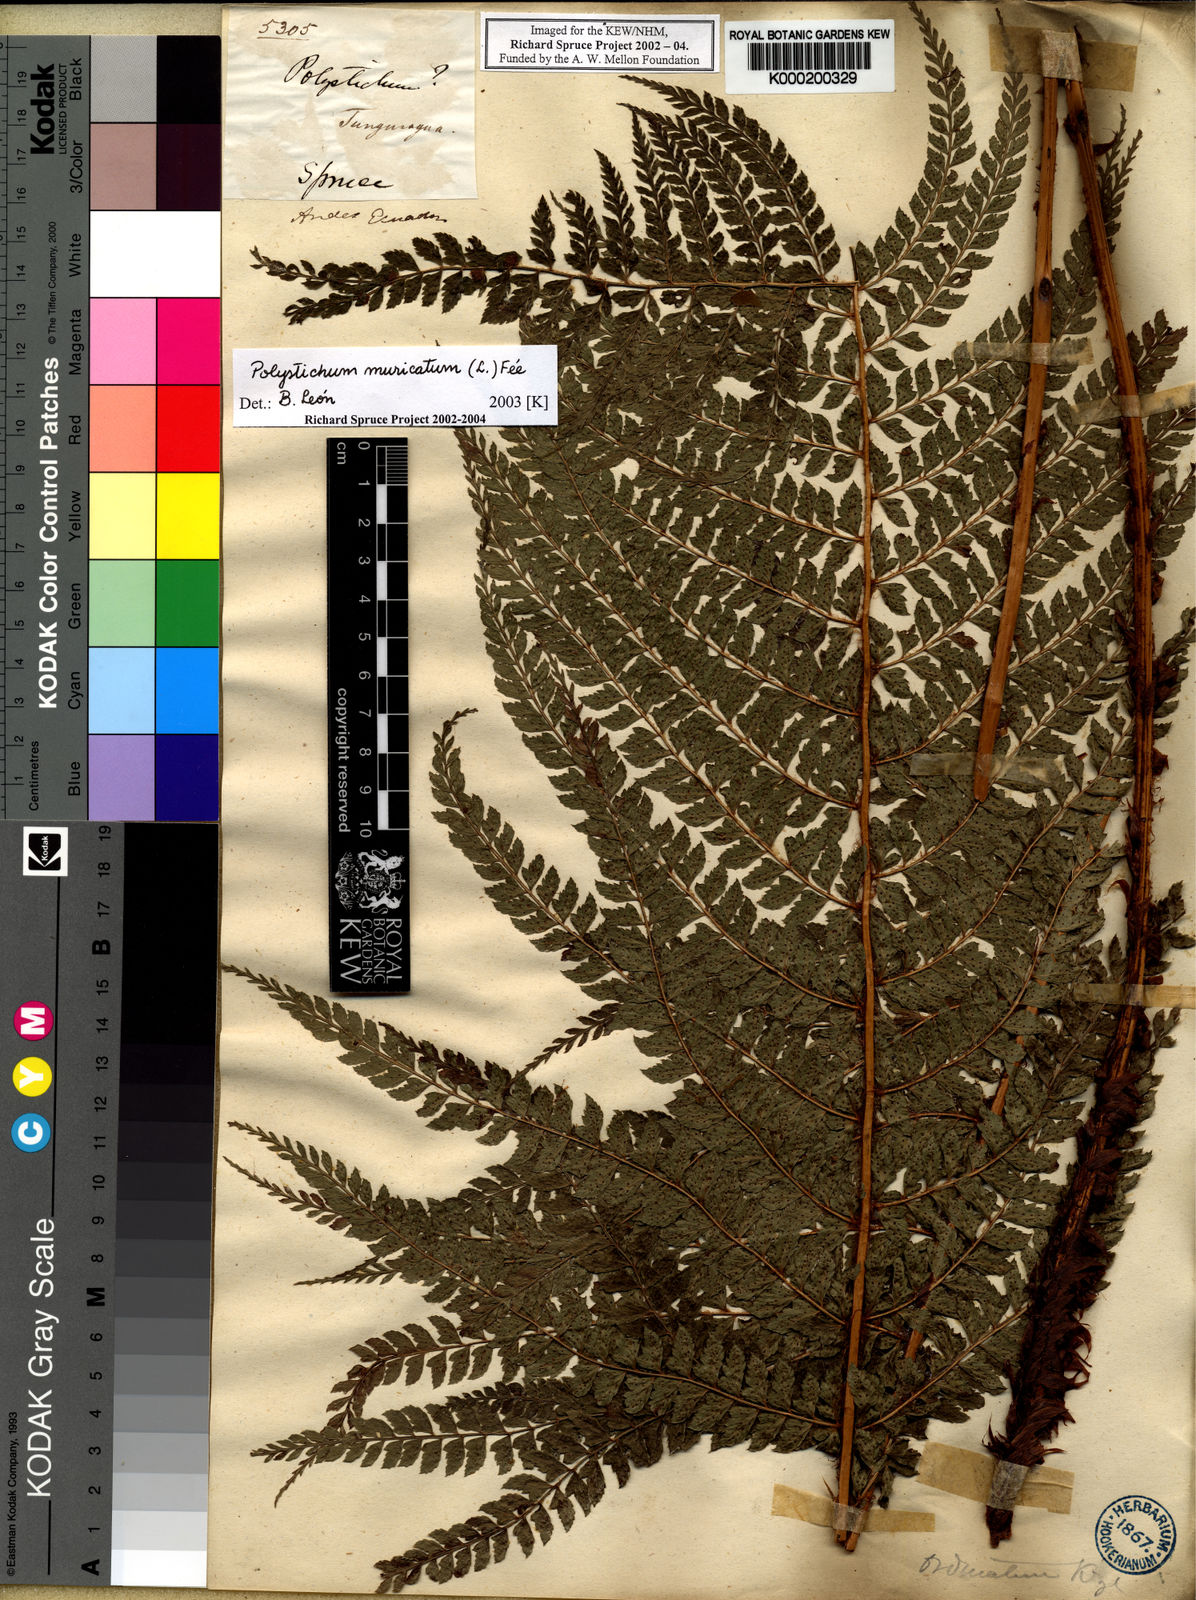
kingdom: Plantae
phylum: Tracheophyta
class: Polypodiopsida
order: Polypodiales
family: Dryopteridaceae
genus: Polystichum
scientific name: Polystichum
